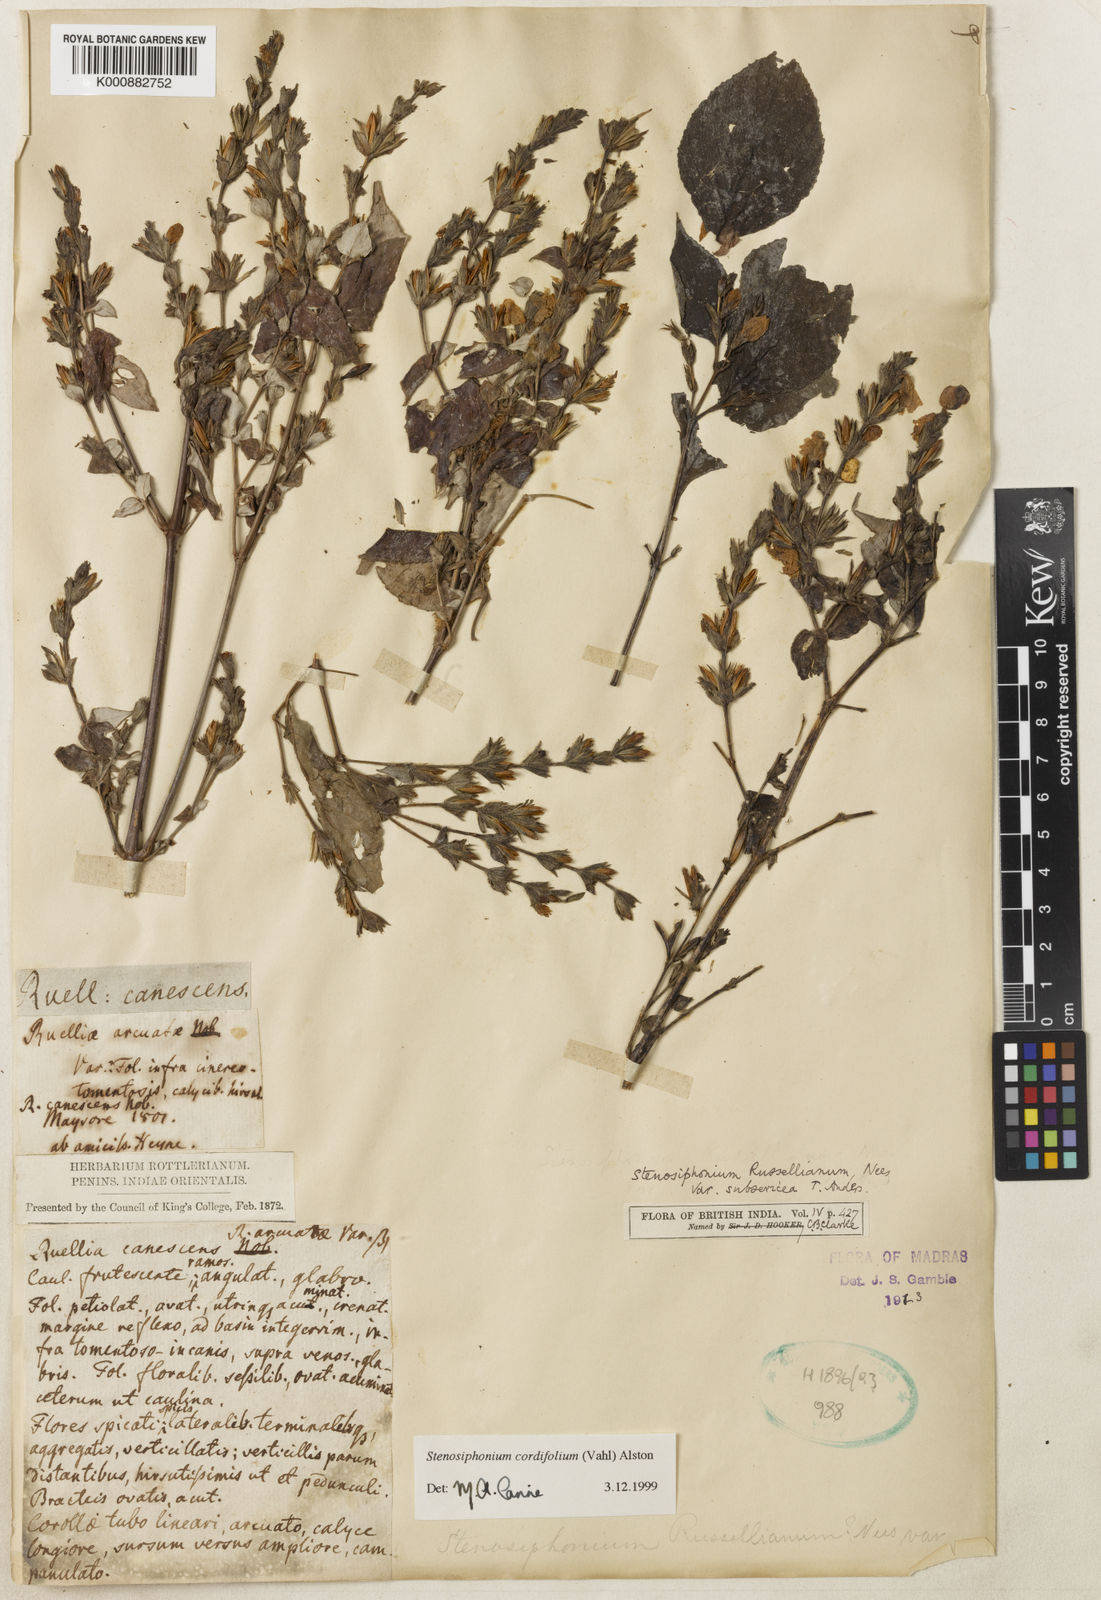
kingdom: Plantae
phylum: Tracheophyta
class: Magnoliopsida
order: Lamiales
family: Acanthaceae
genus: Strobilanthes
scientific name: Strobilanthes cordifolia
